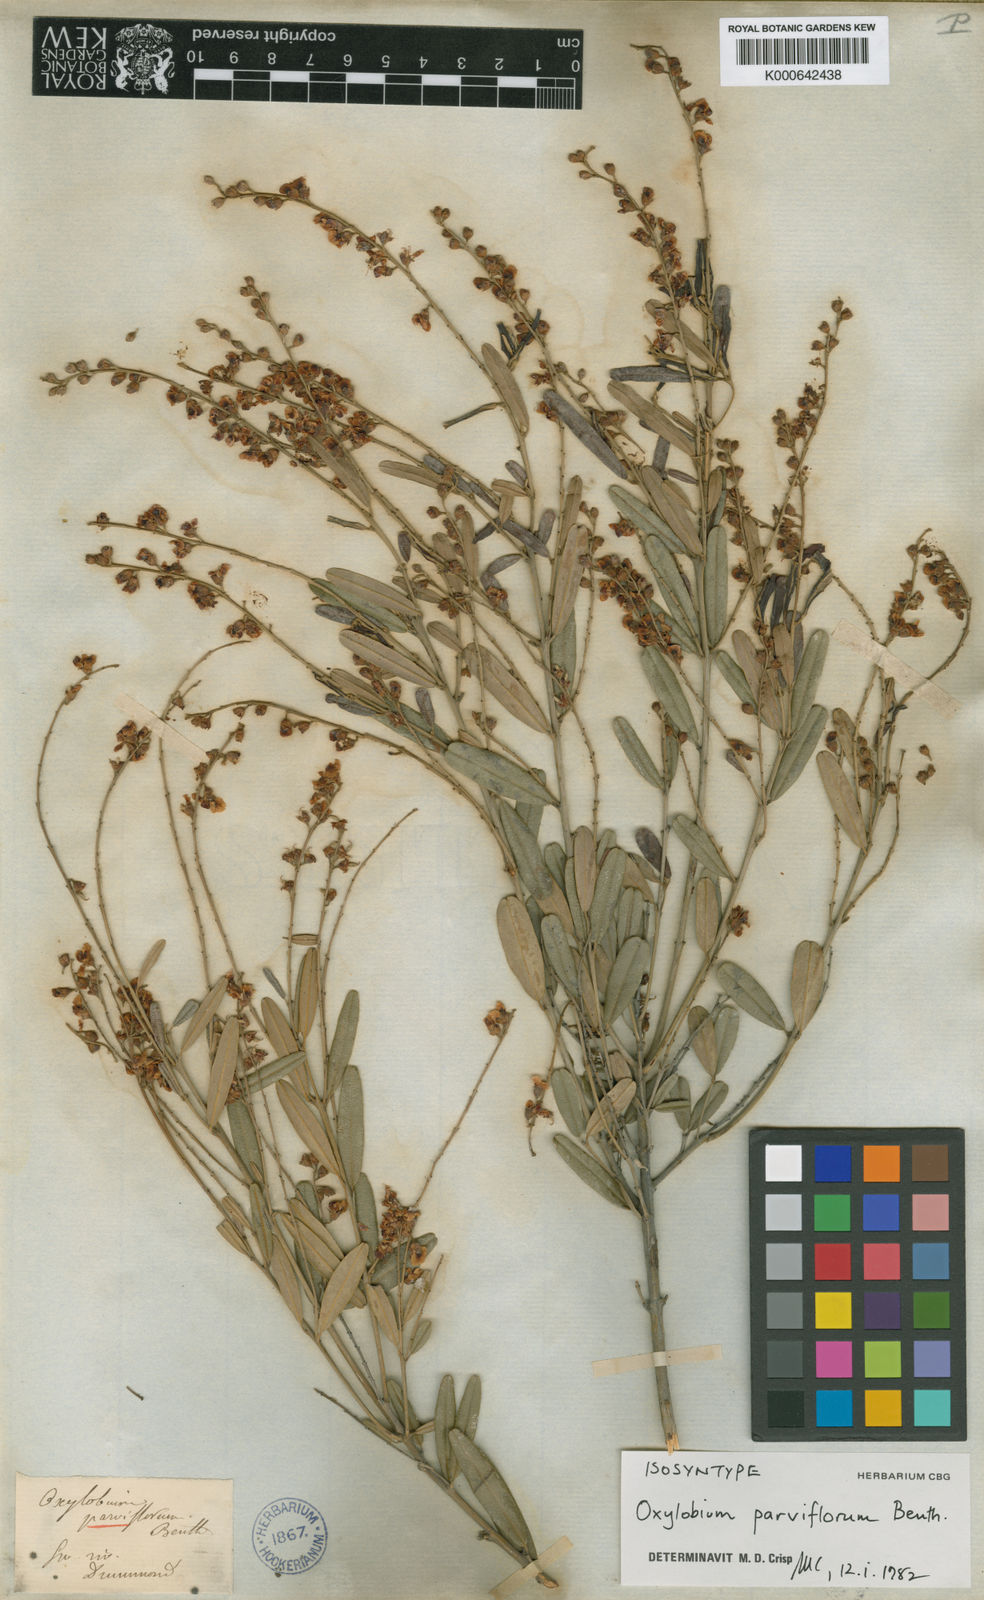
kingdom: Plantae
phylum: Tracheophyta
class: Magnoliopsida
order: Fabales
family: Fabaceae
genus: Gastrolobium
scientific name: Gastrolobium parviflorum
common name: Berry poisonbush
